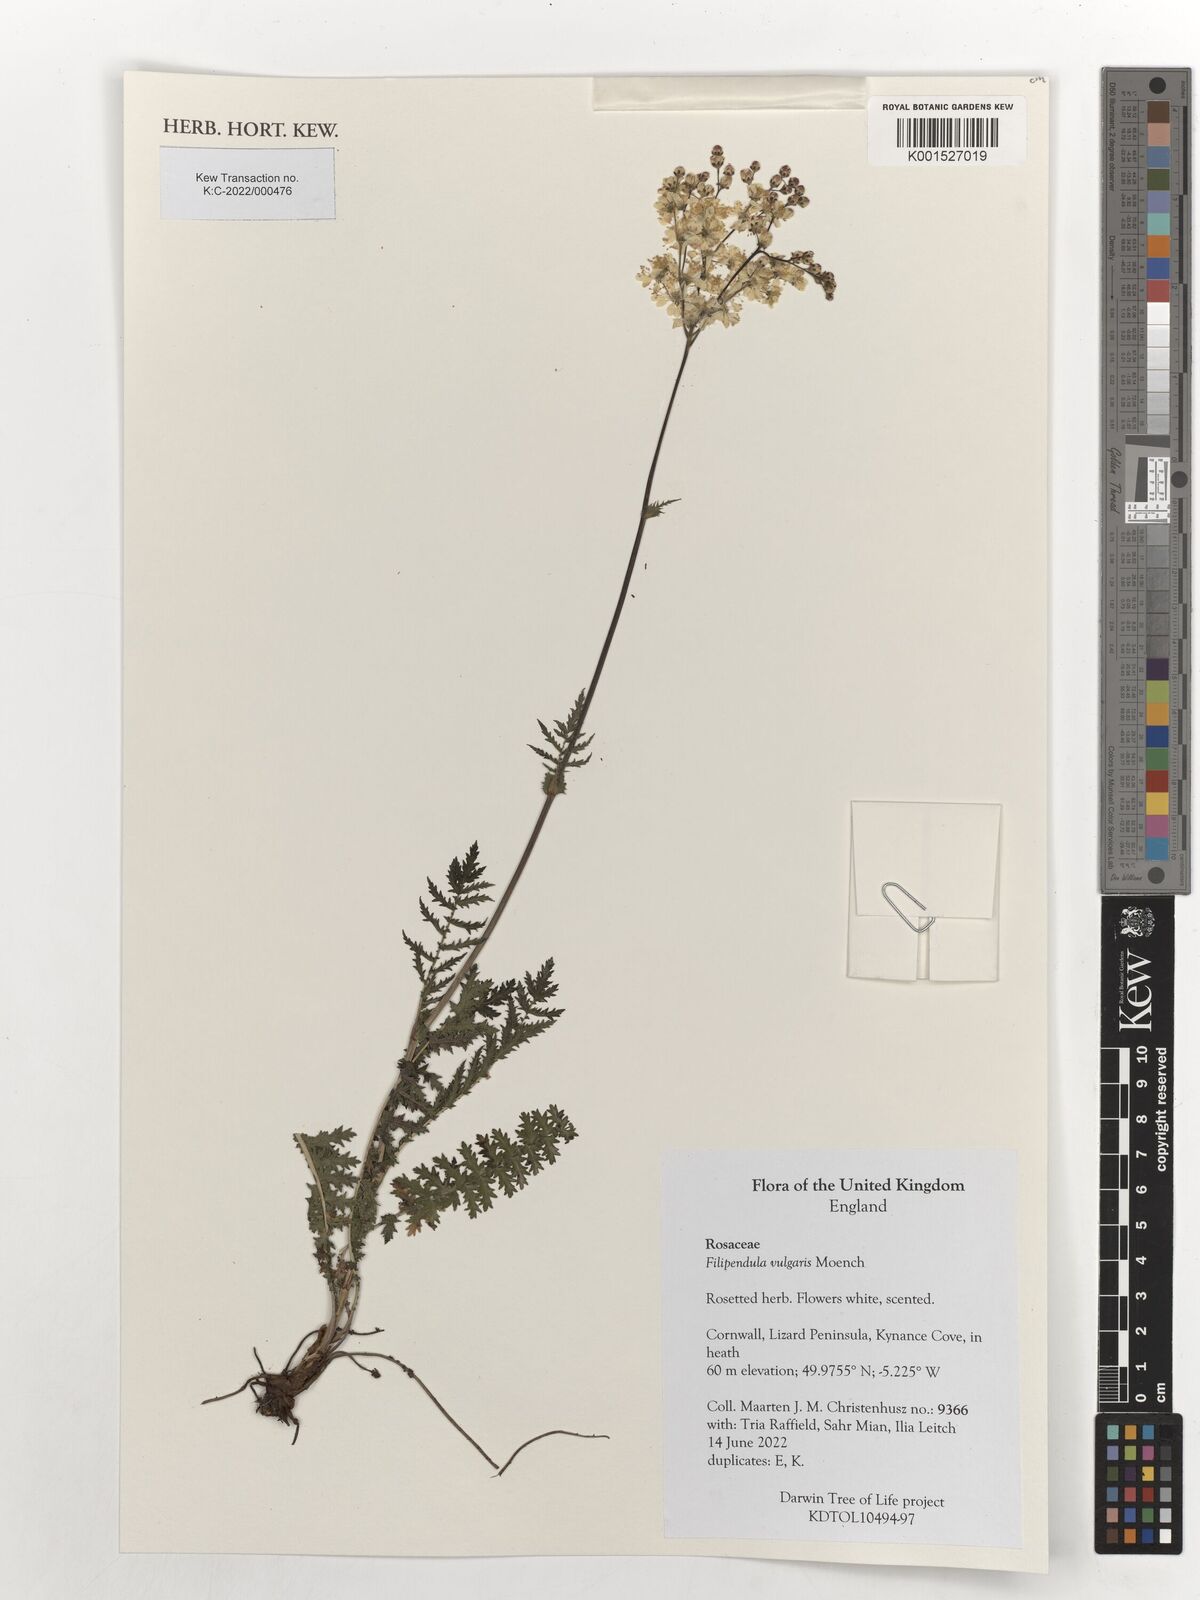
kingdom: Plantae
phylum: Tracheophyta
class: Magnoliopsida
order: Rosales
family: Rosaceae
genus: Filipendula
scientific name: Filipendula vulgaris
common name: Dropwort
